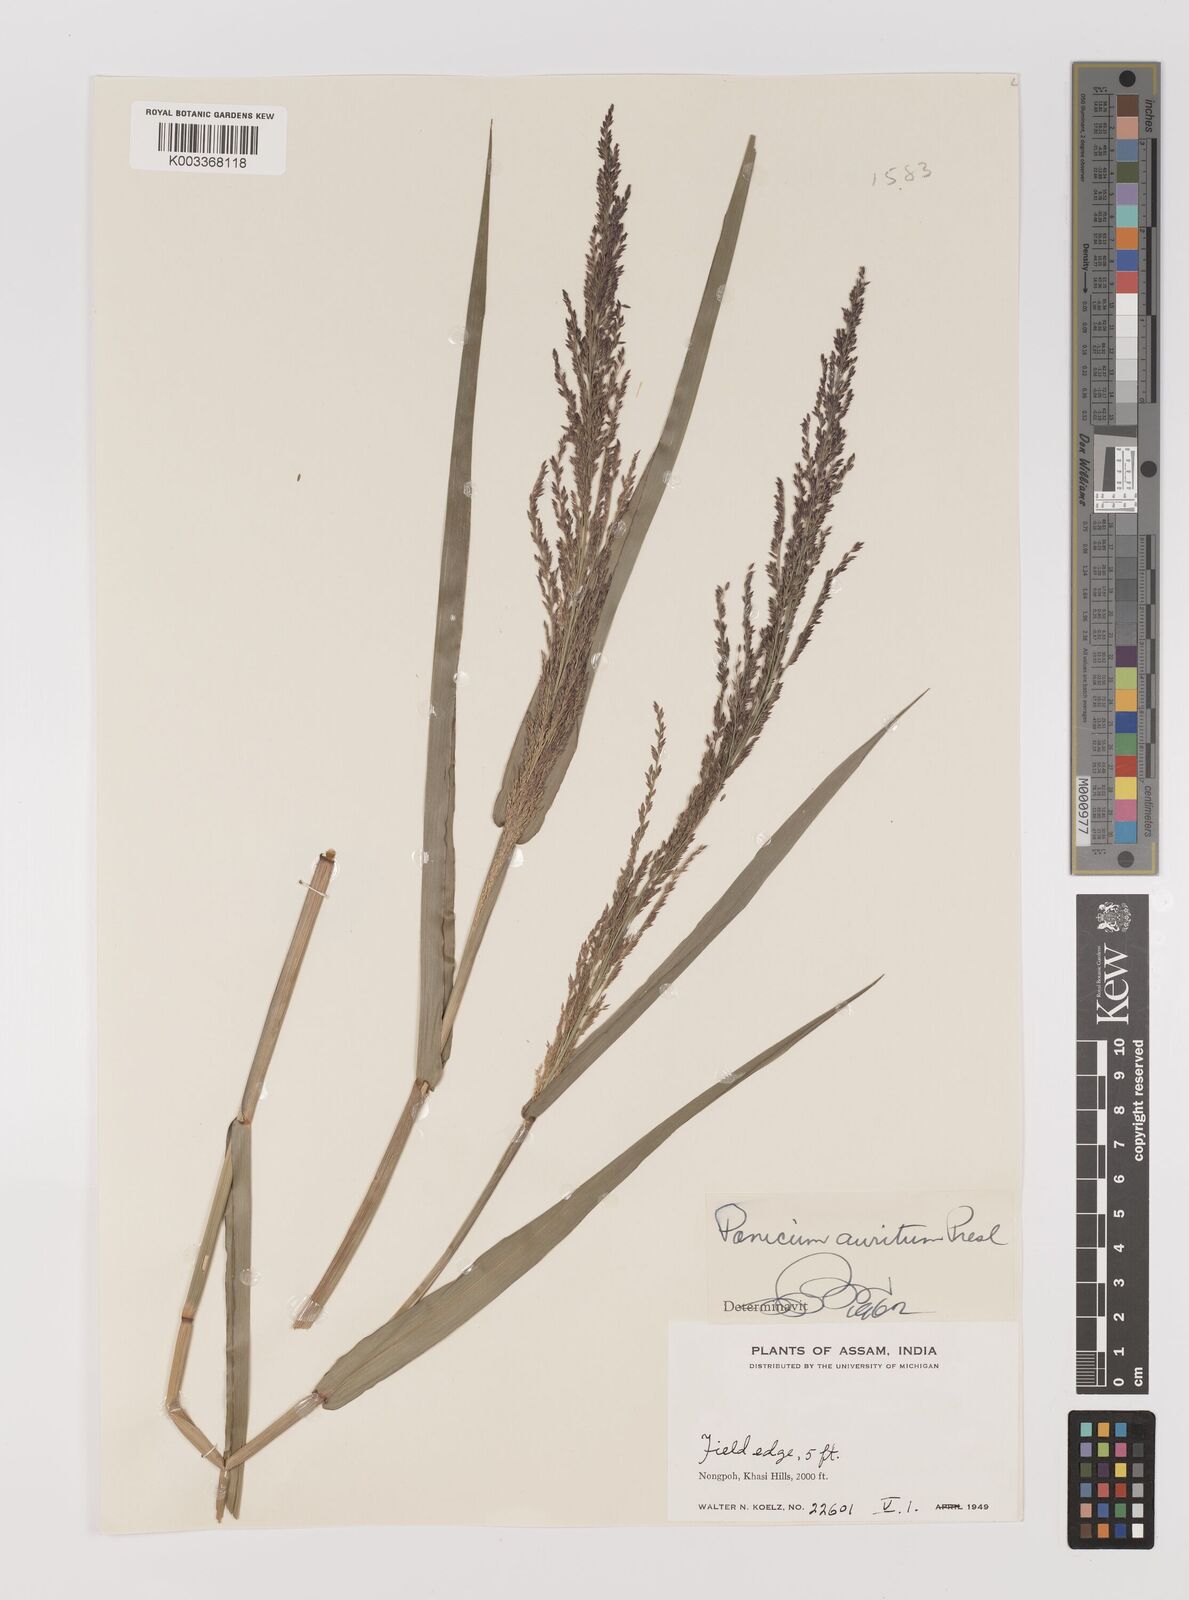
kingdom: Plantae
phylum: Tracheophyta
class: Liliopsida
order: Poales
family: Poaceae
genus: Hymenachne
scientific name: Hymenachne aurita
